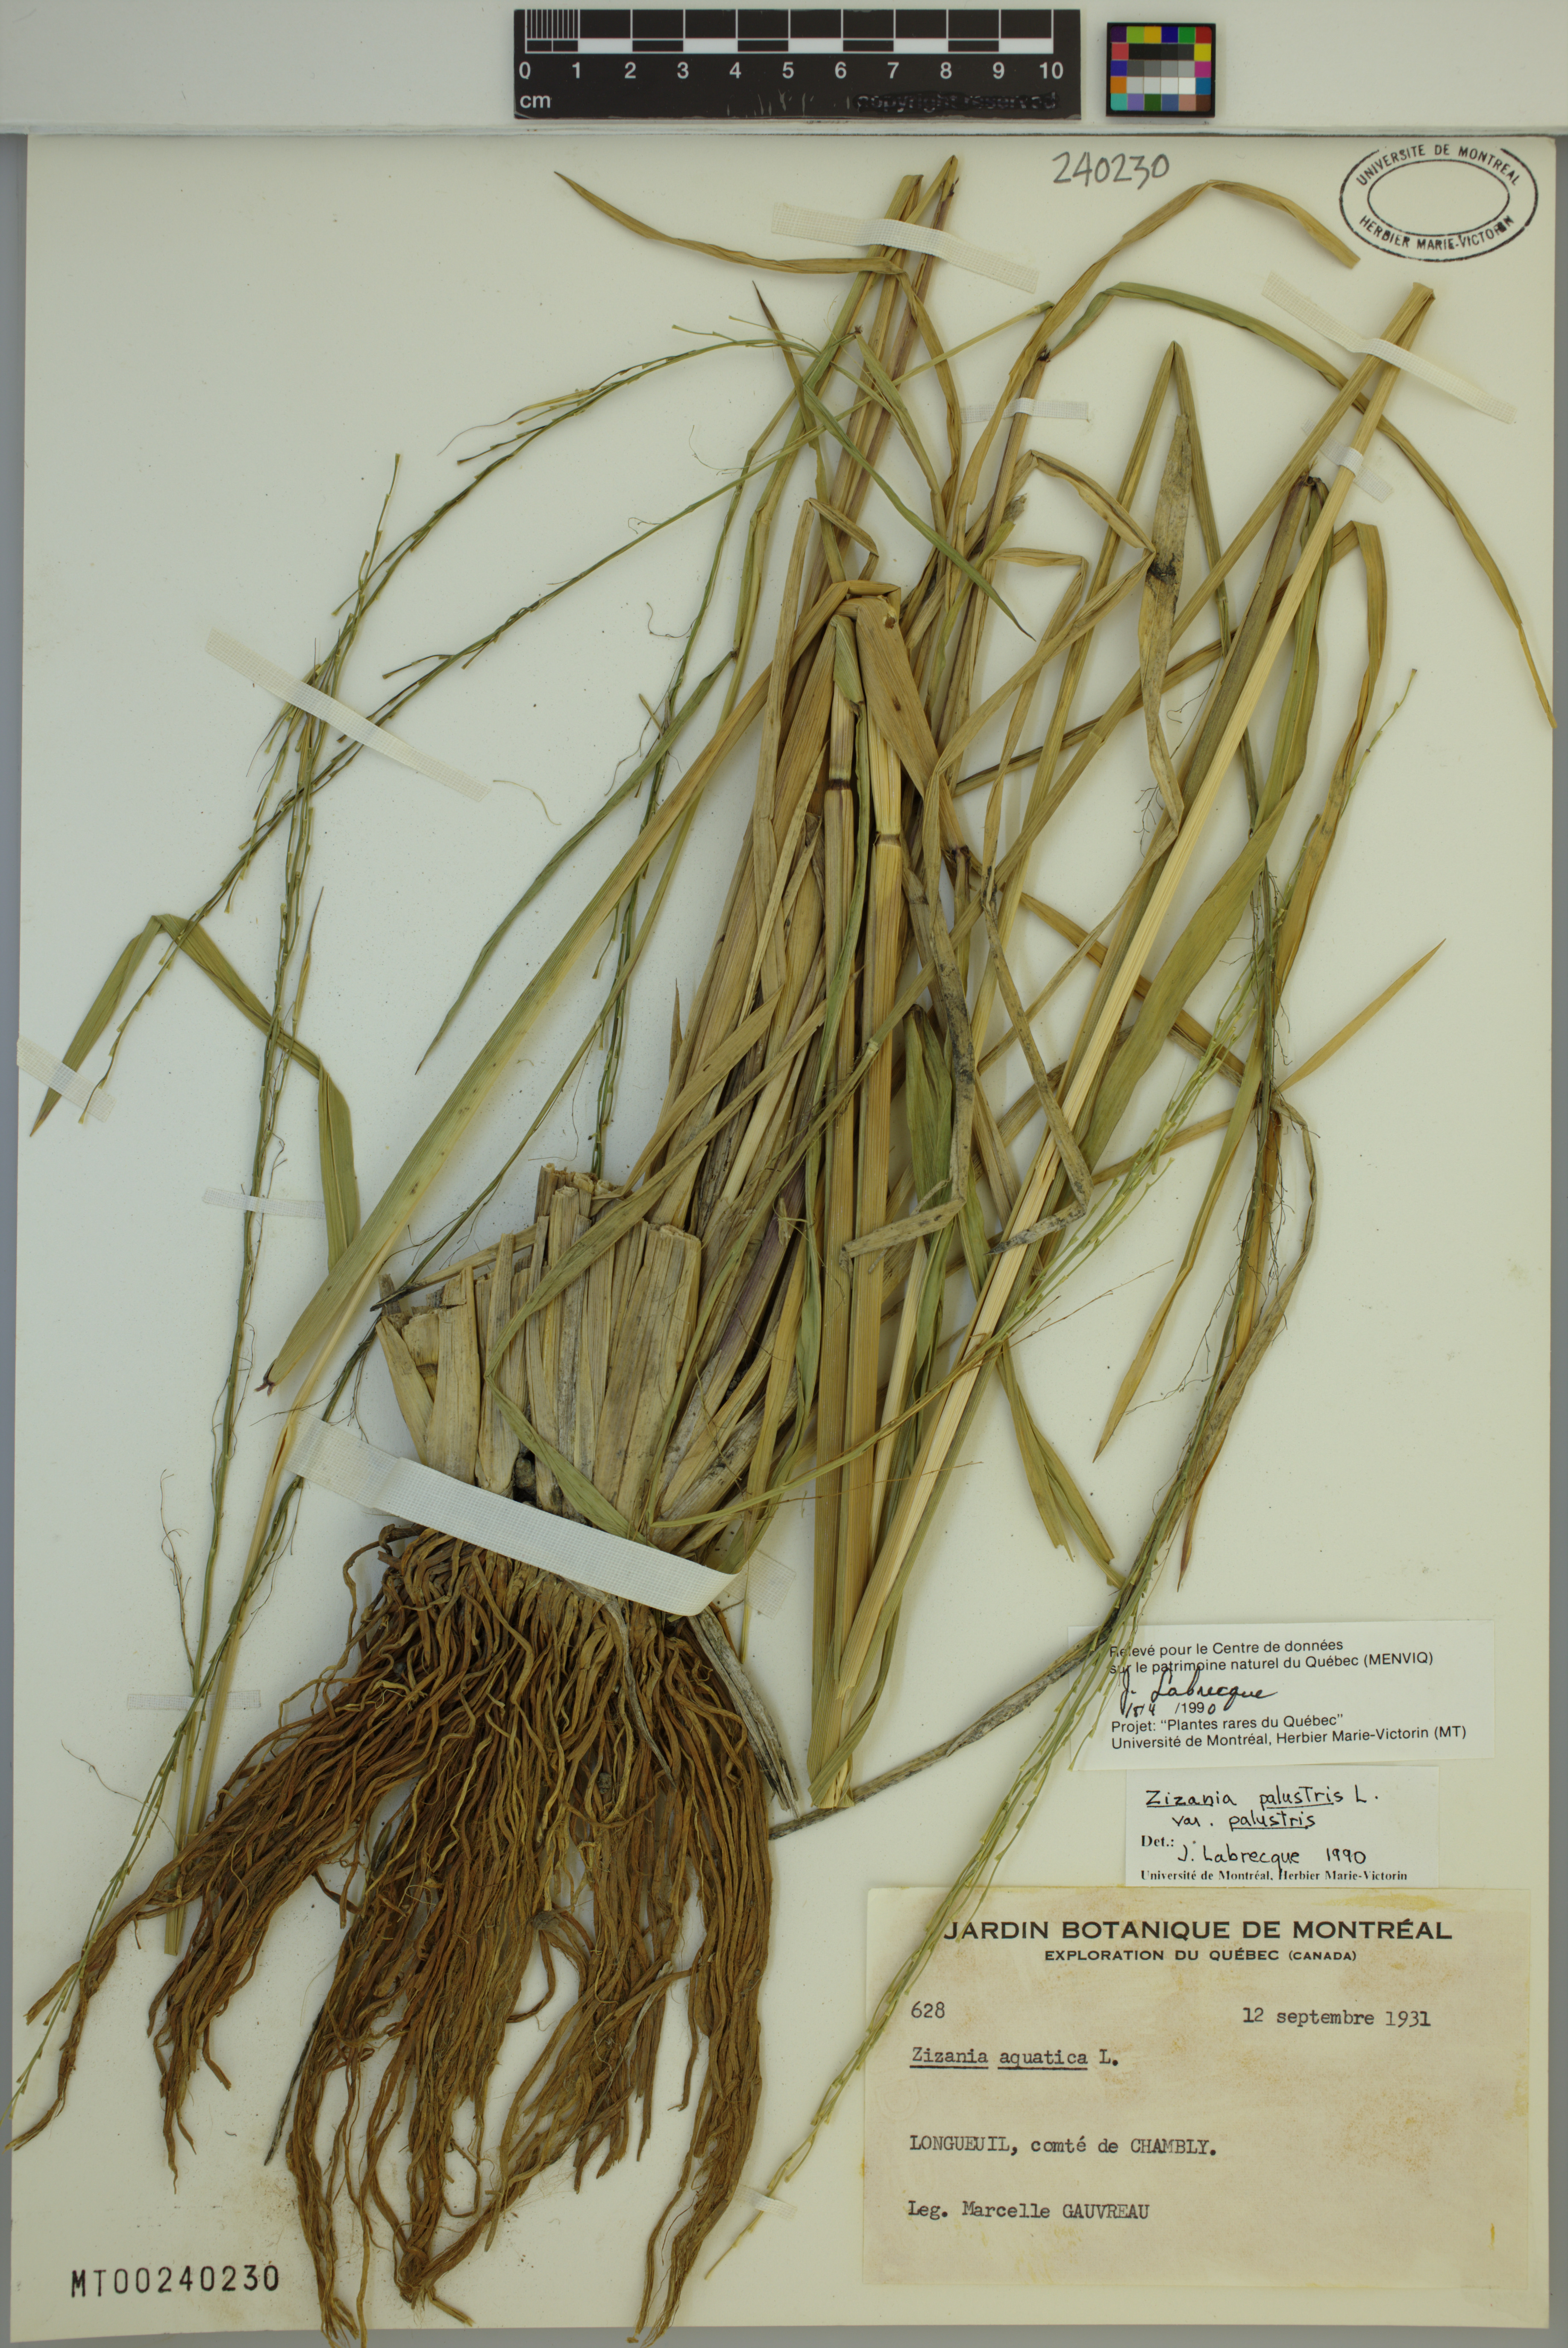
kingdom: Plantae
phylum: Tracheophyta
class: Liliopsida
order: Poales
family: Poaceae
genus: Zizania
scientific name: Zizania palustris
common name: Northern wild rice
